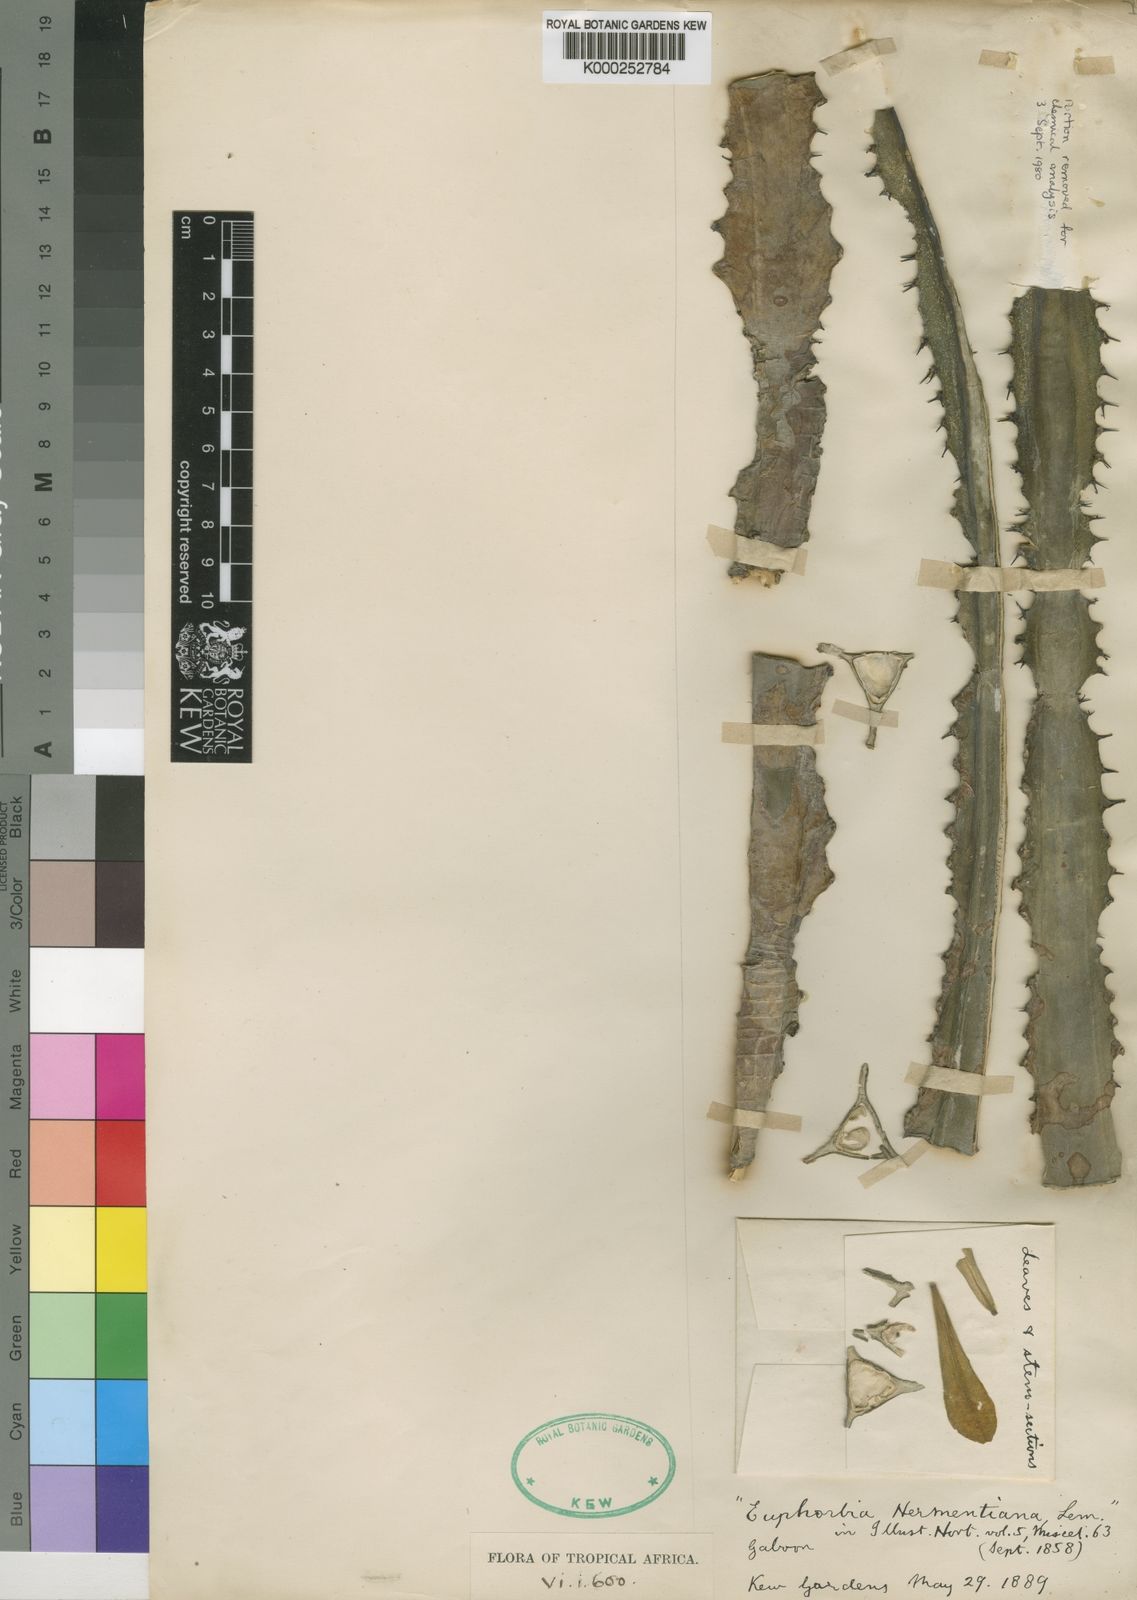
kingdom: Plantae
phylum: Tracheophyta
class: Magnoliopsida
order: Malpighiales
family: Euphorbiaceae
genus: Euphorbia
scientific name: Euphorbia trigona
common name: African milktree
